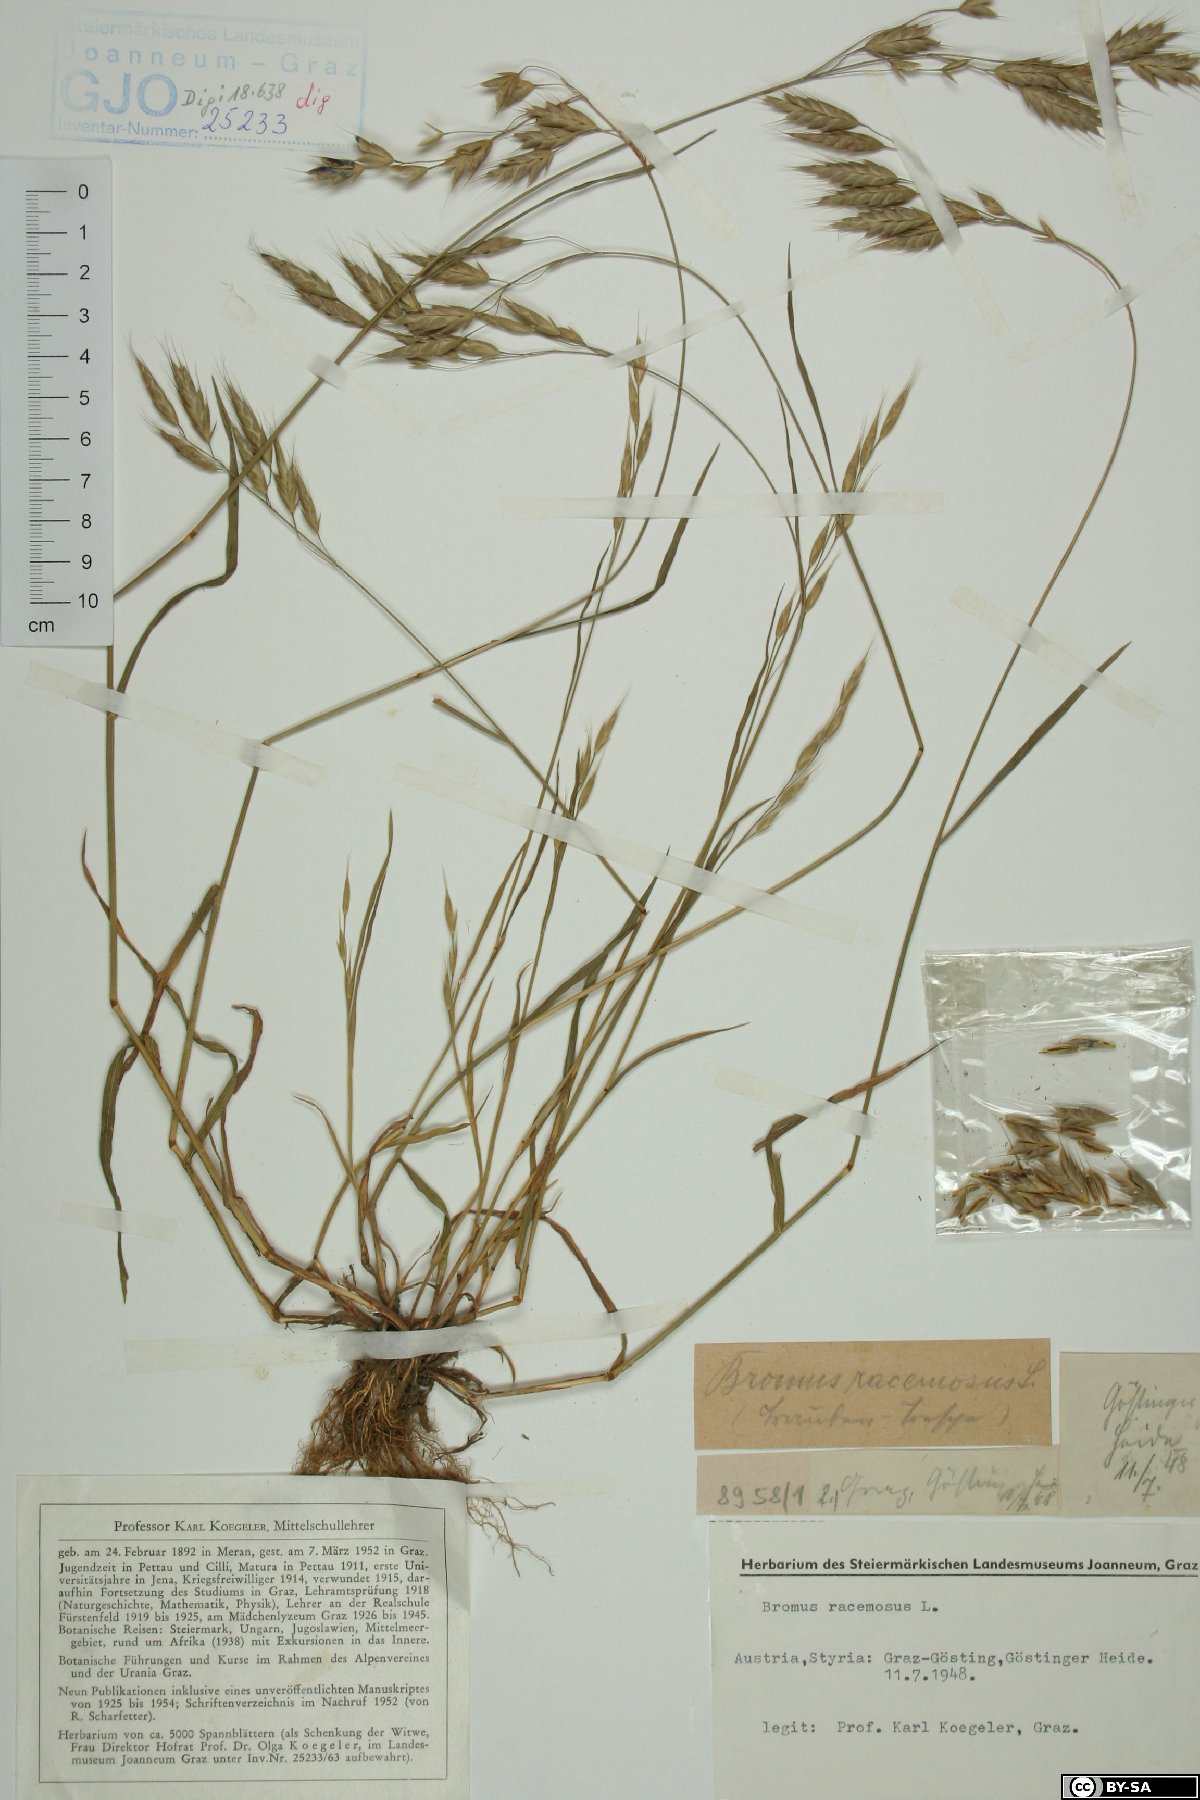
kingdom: Plantae
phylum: Tracheophyta
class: Liliopsida
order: Poales
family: Poaceae
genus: Bromus
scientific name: Bromus racemosus
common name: Bald brome
